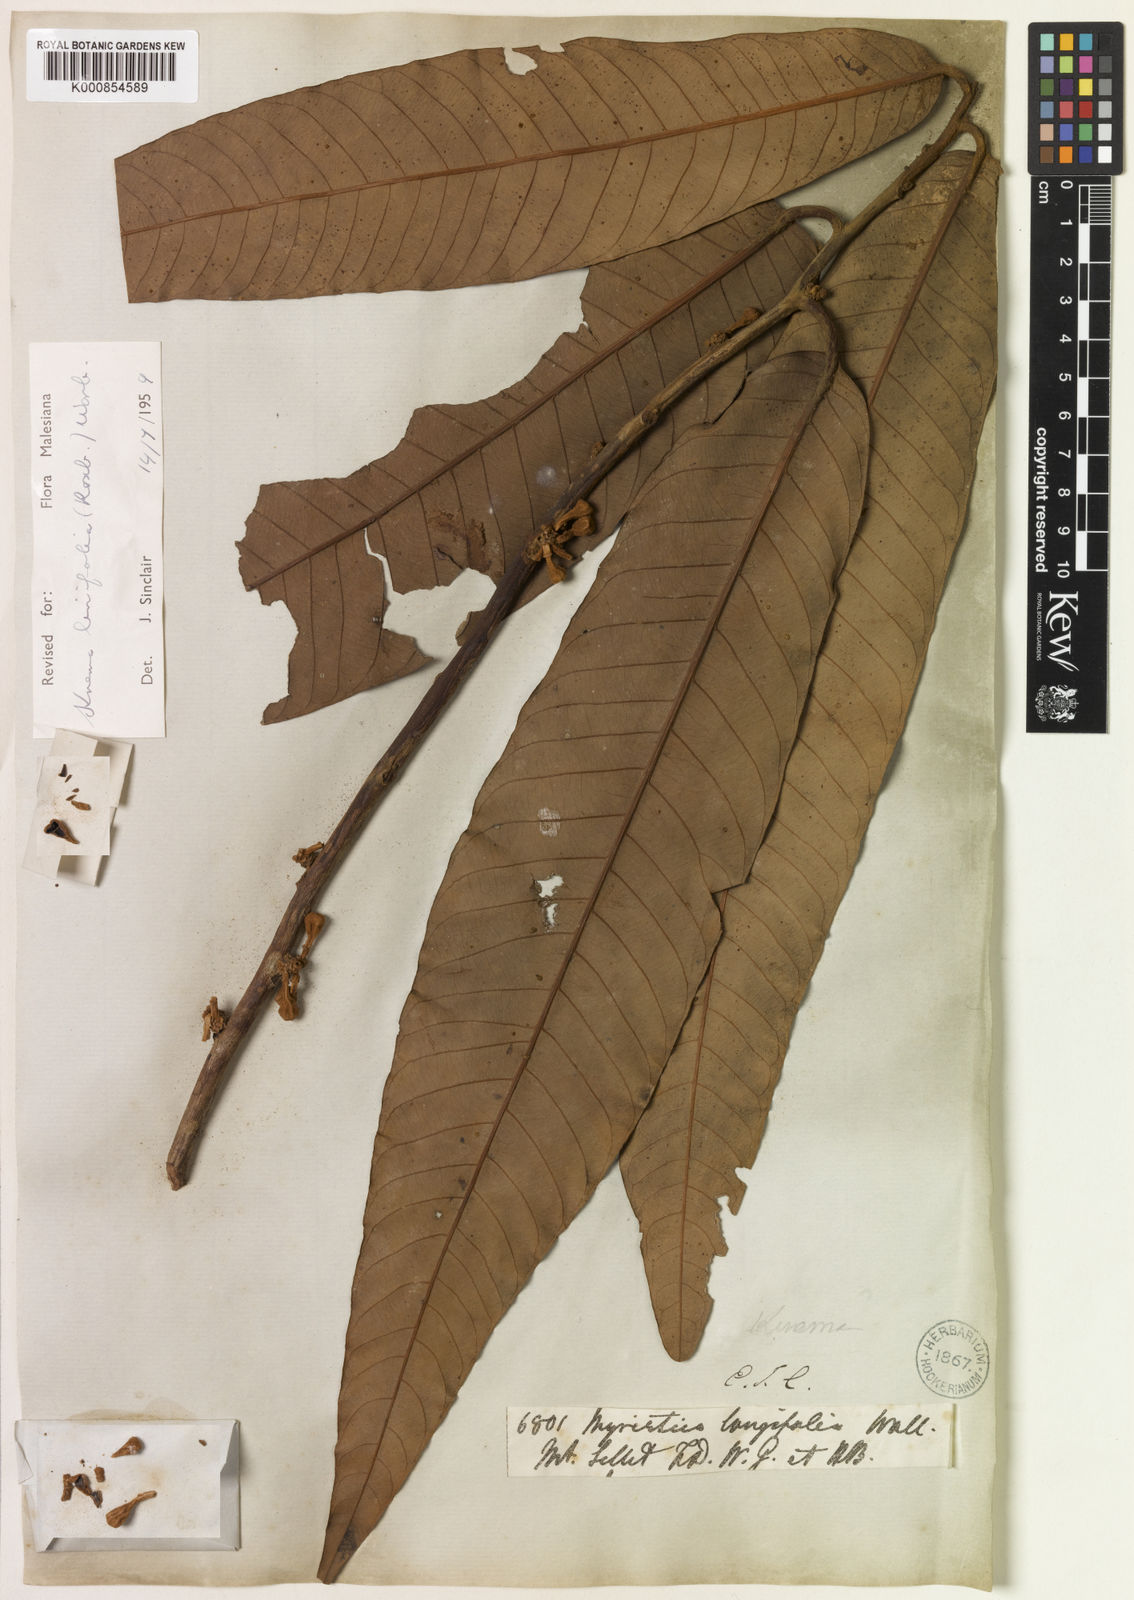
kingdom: Plantae
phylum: Tracheophyta
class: Magnoliopsida
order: Magnoliales
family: Myristicaceae
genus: Knema
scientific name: Knema linifolia
